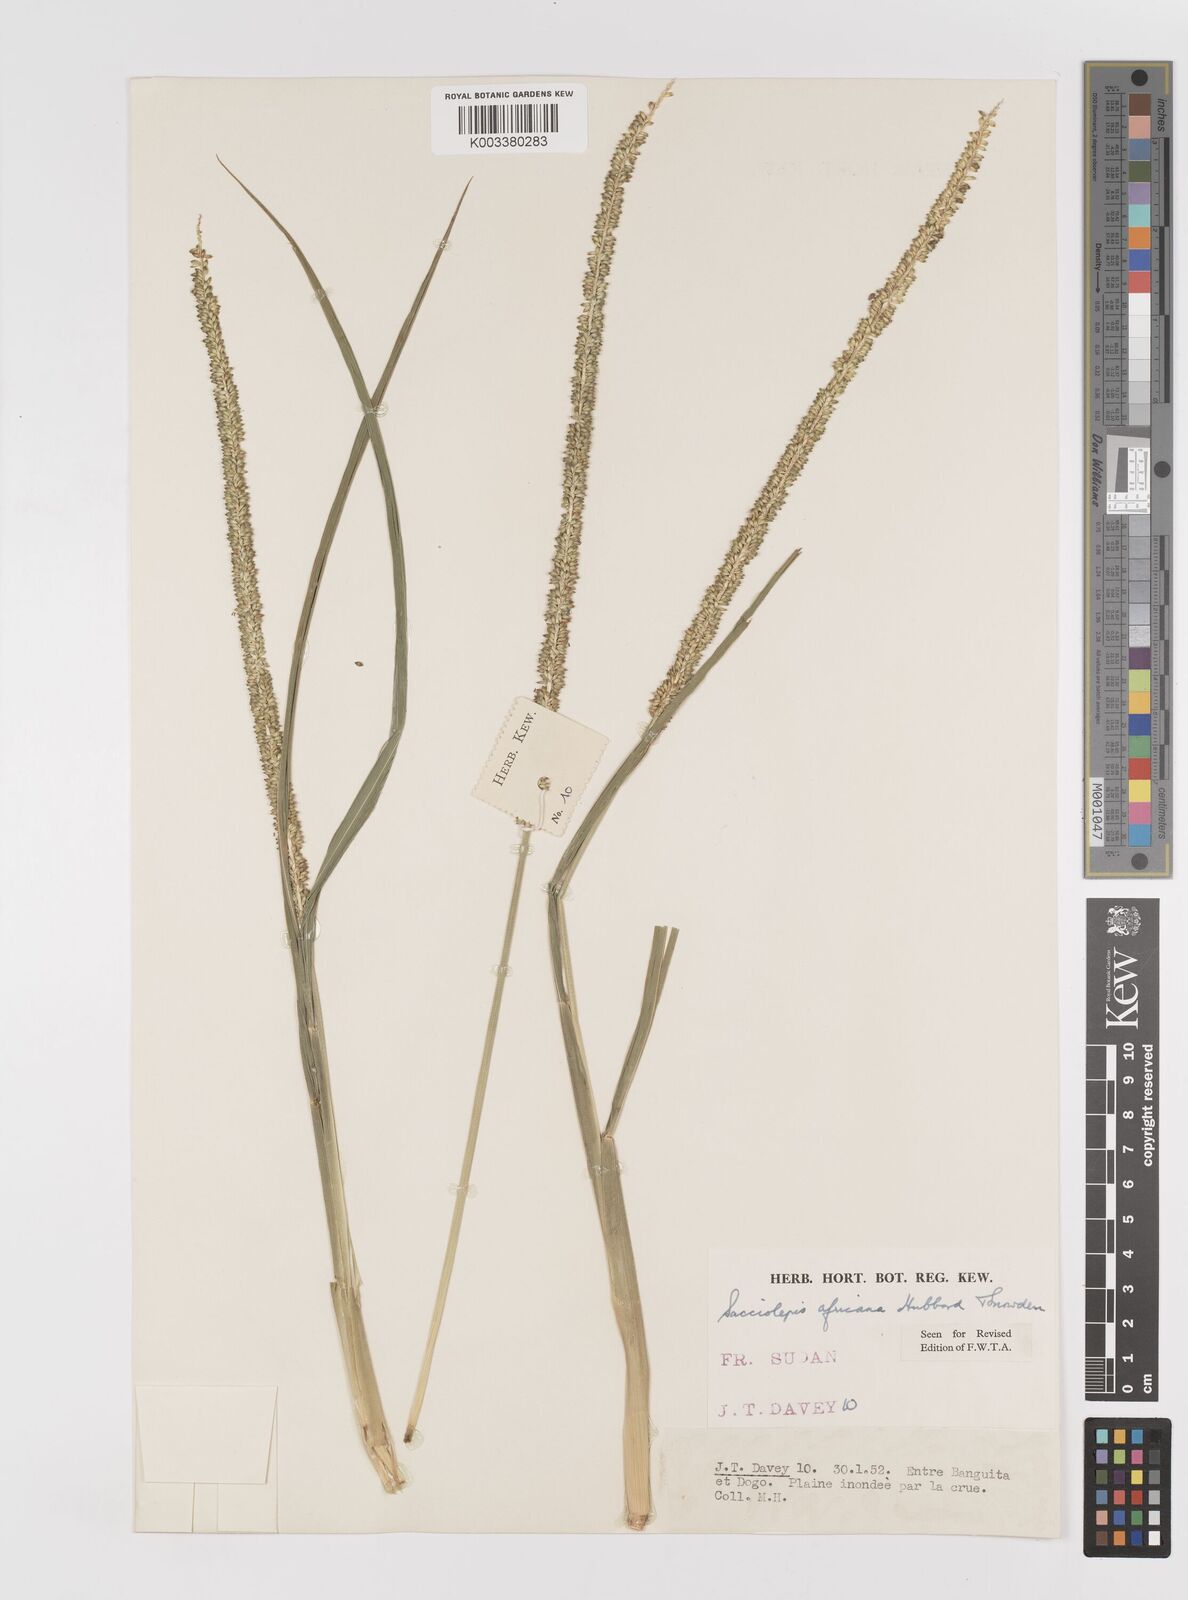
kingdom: Plantae
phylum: Tracheophyta
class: Liliopsida
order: Poales
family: Poaceae
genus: Sacciolepis
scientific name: Sacciolepis africana
